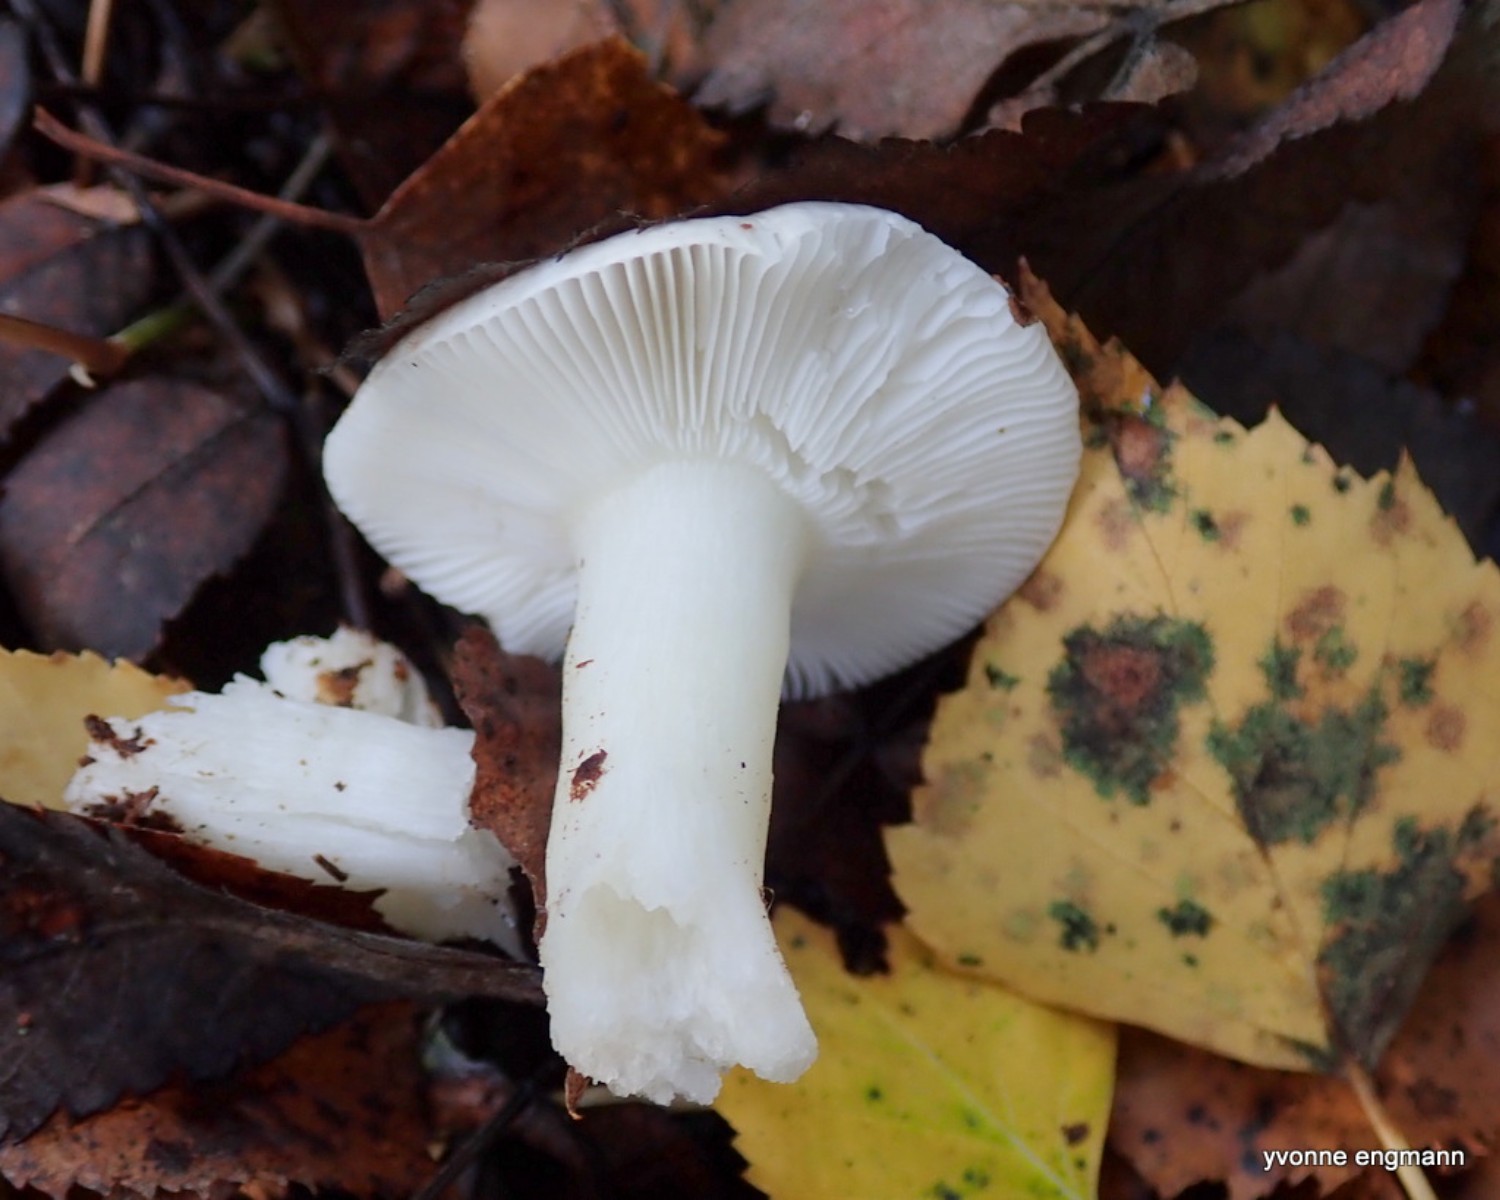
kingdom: Fungi
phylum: Basidiomycota
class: Agaricomycetes
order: Russulales
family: Russulaceae
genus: Russula
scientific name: Russula betularum
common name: bleg gift-skørhat
